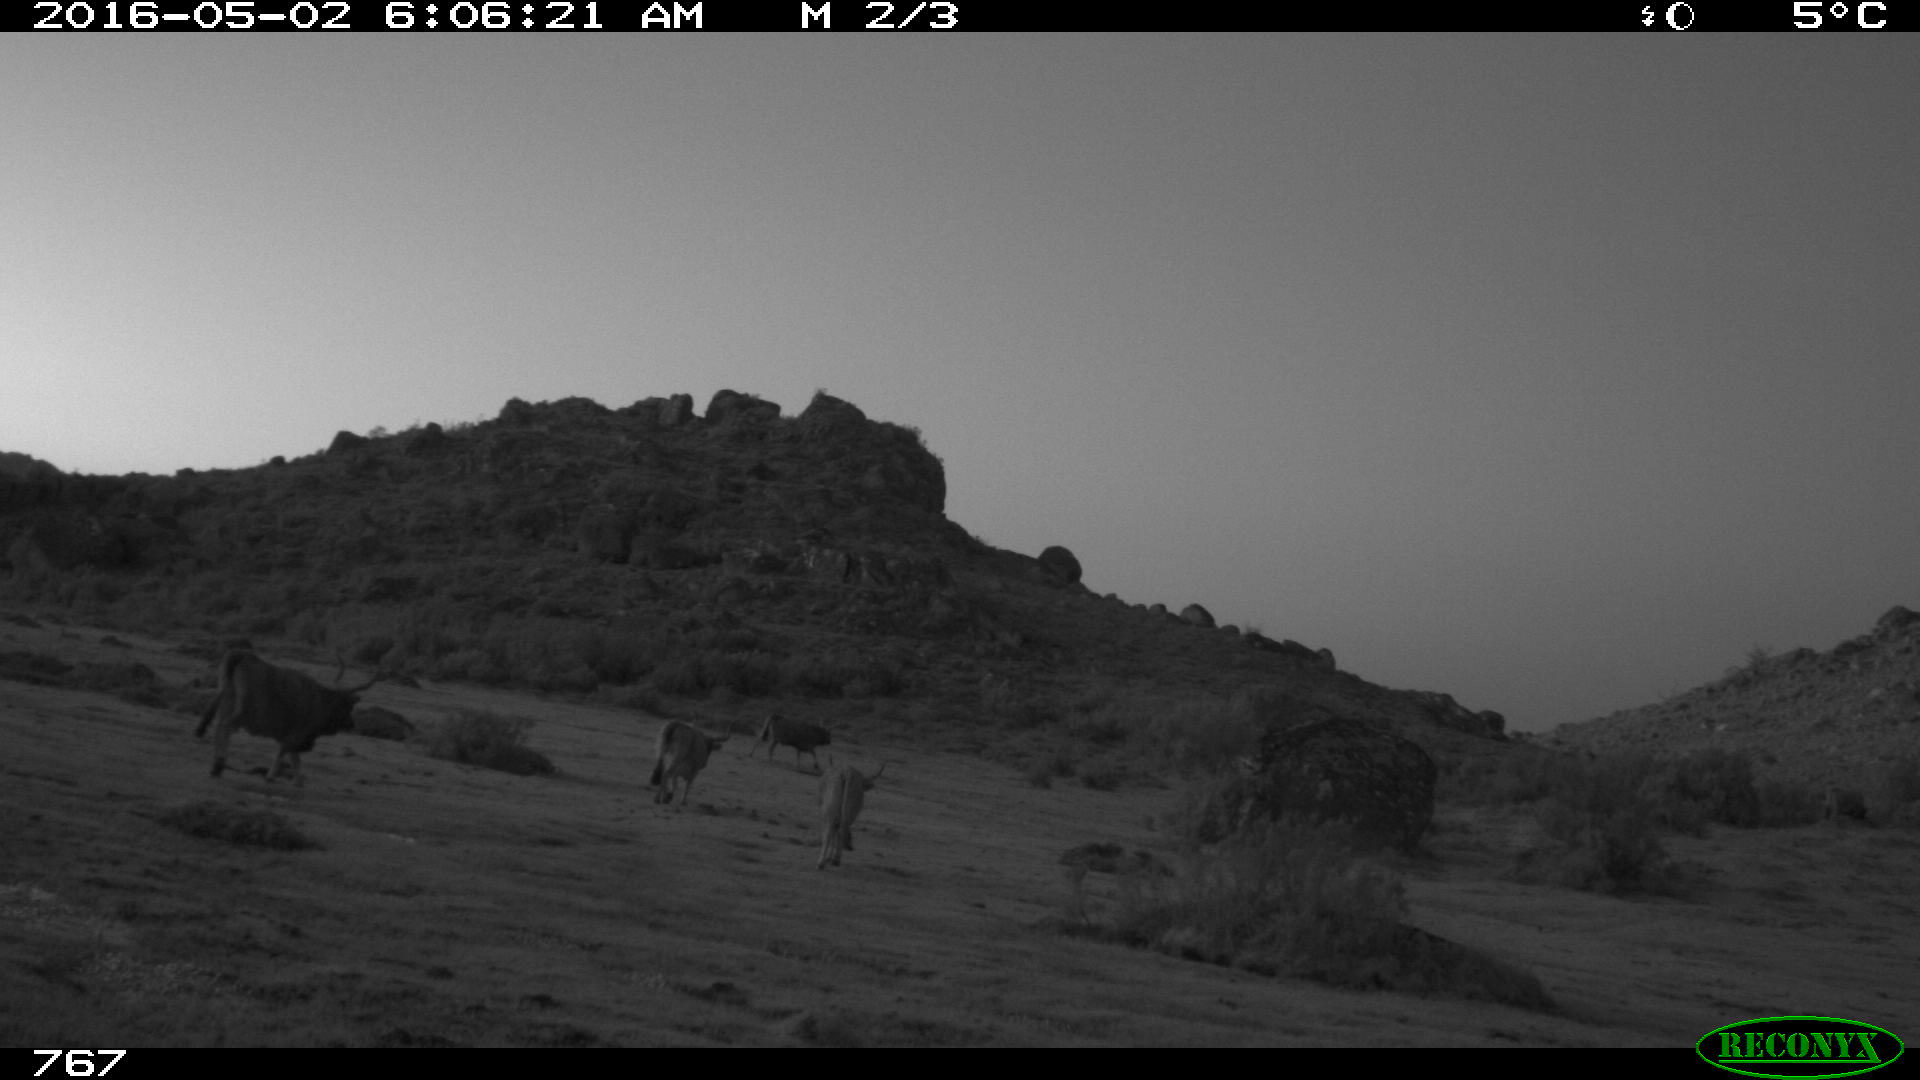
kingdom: Animalia
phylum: Chordata
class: Mammalia
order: Artiodactyla
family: Bovidae
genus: Bos
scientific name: Bos taurus
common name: Domesticated cattle
